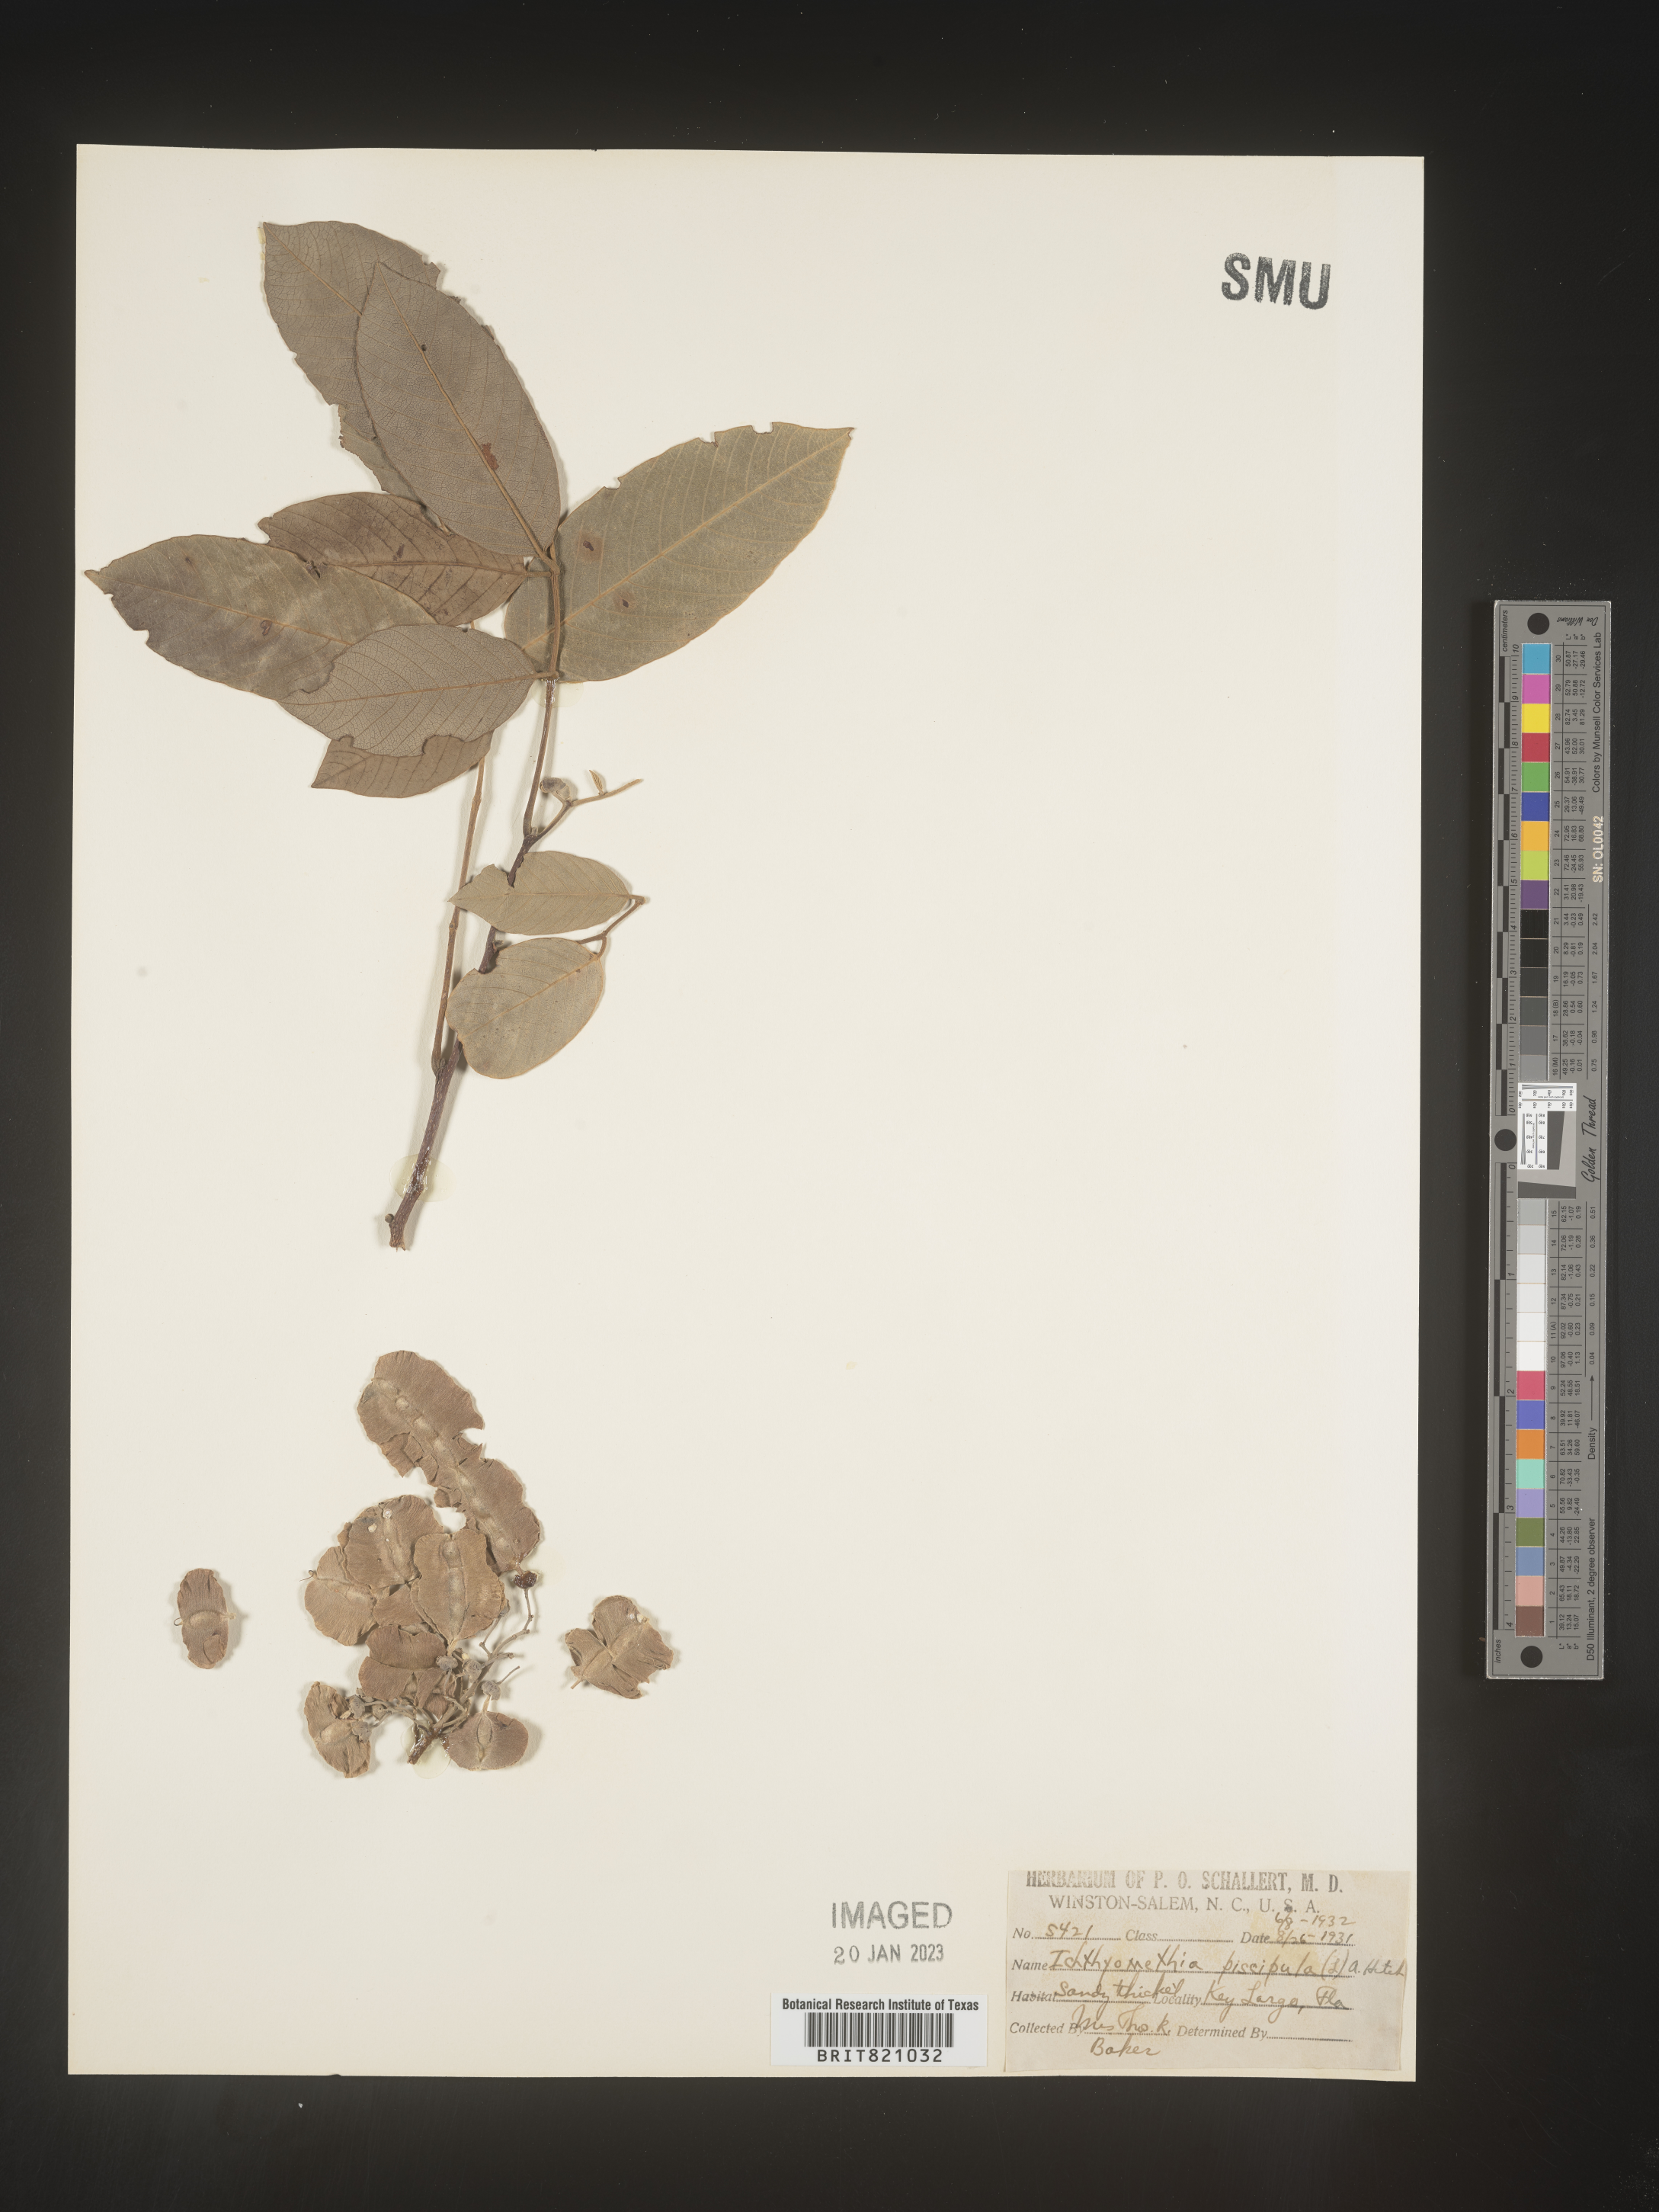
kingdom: Plantae
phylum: Tracheophyta
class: Magnoliopsida
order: Fabales
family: Fabaceae
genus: Ichthyomethia
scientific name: Ichthyomethia
